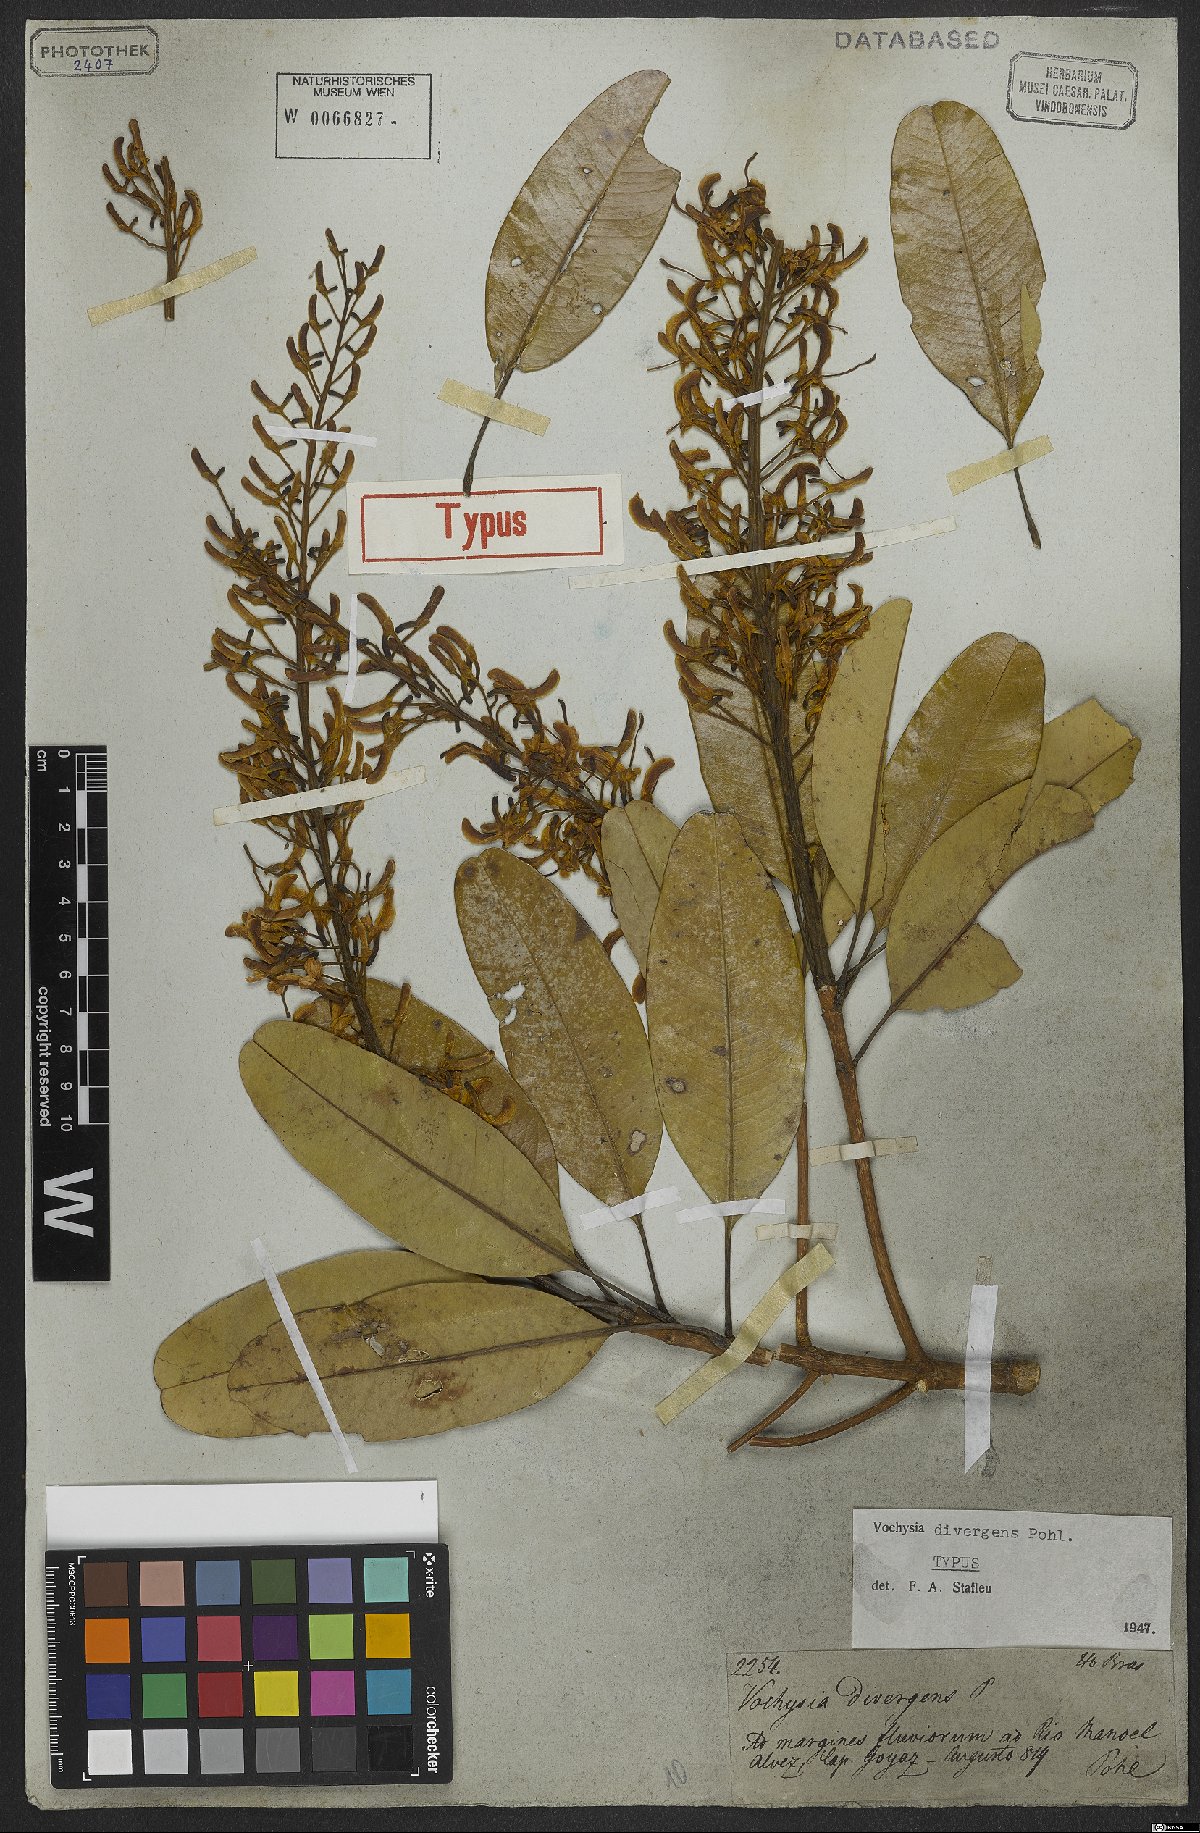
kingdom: Plantae
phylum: Tracheophyta
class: Magnoliopsida
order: Myrtales
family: Vochysiaceae
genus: Vochysia
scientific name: Vochysia divergens
